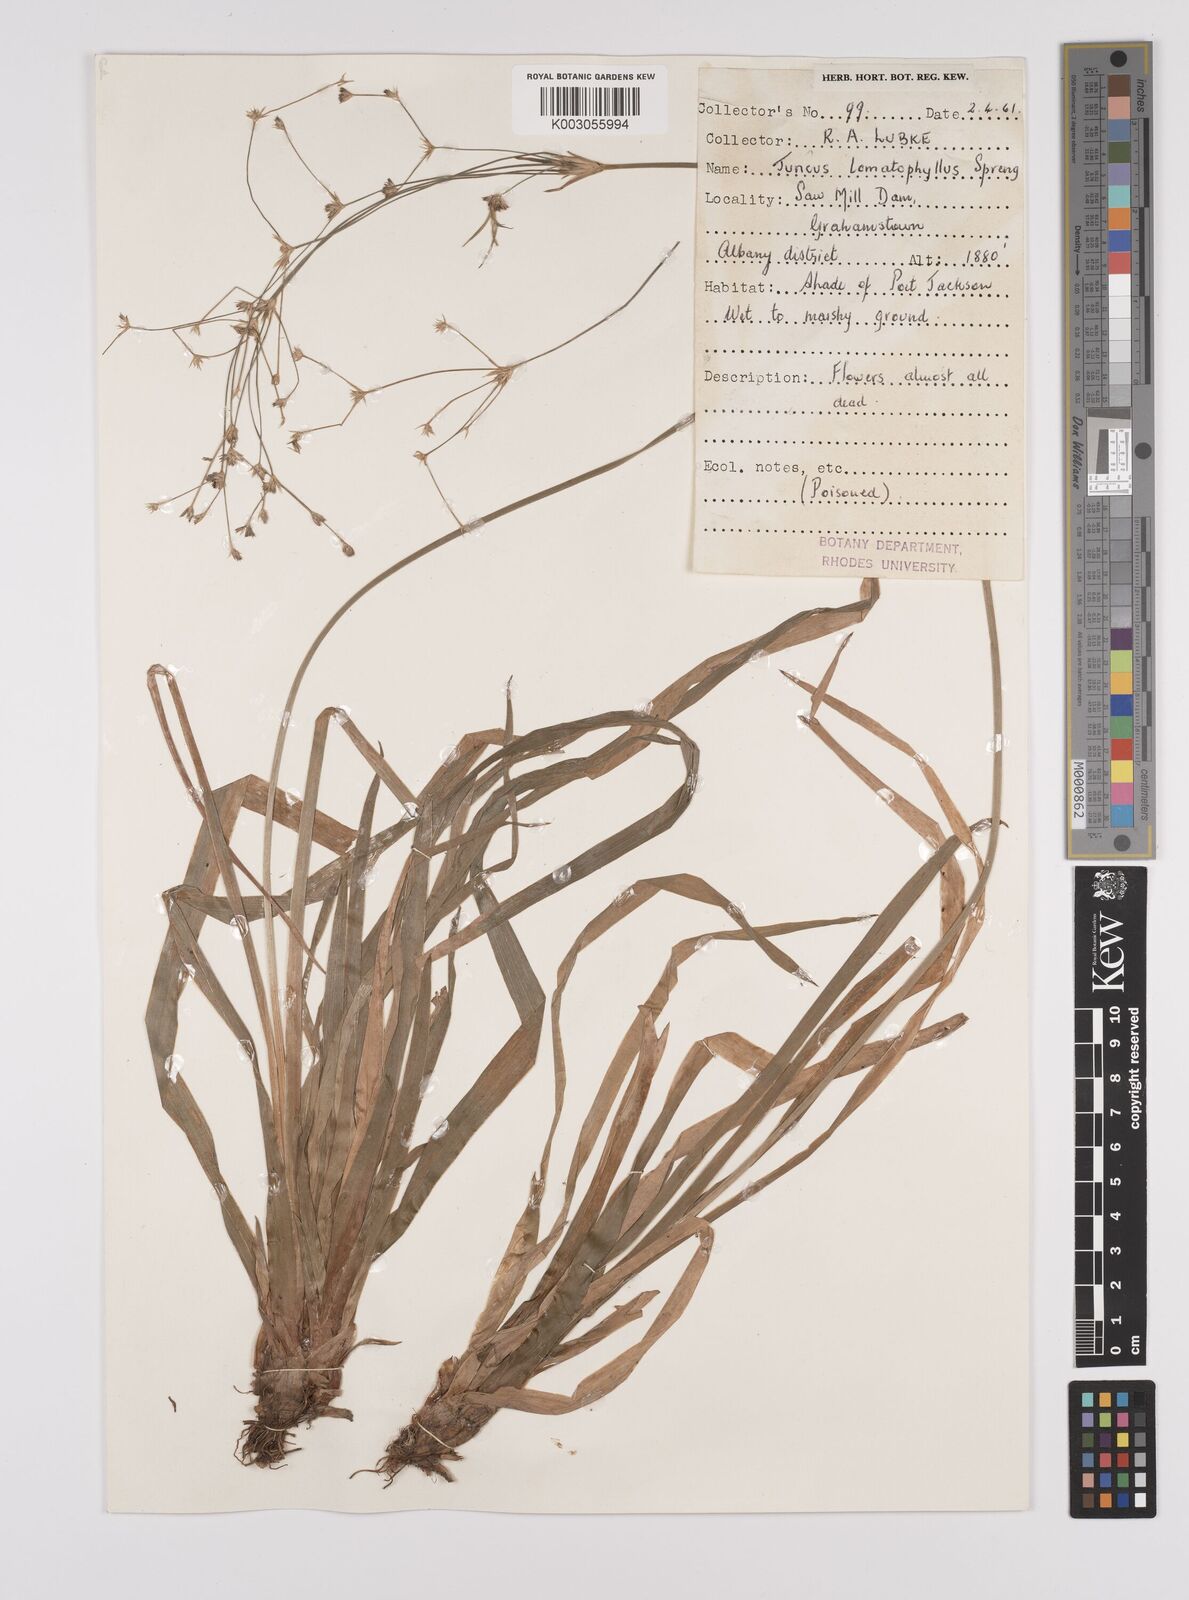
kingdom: Plantae
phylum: Tracheophyta
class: Liliopsida
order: Poales
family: Juncaceae
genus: Juncus
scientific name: Juncus lomatophyllus
